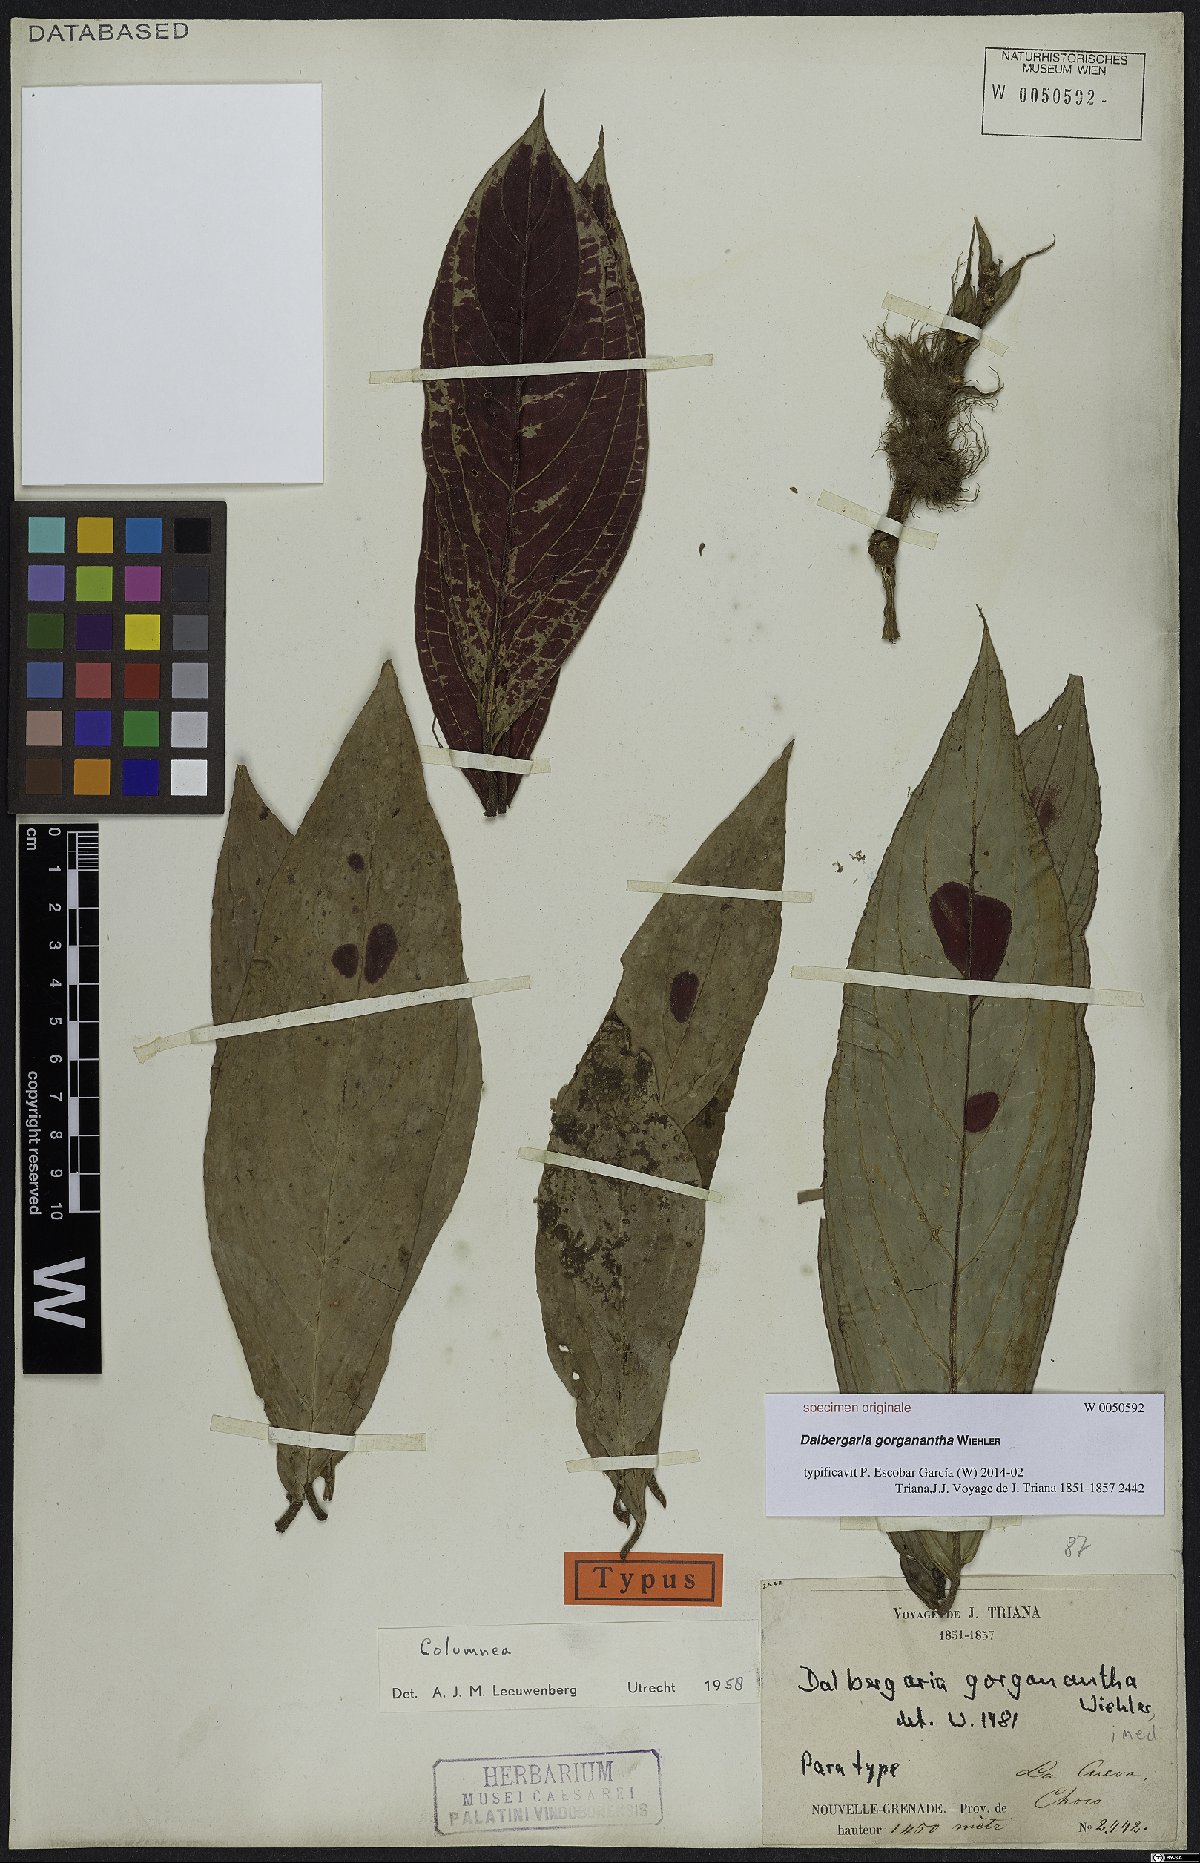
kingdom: Plantae
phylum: Tracheophyta
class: Magnoliopsida
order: Lamiales
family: Gesneriaceae
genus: Columnea
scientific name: Columnea
